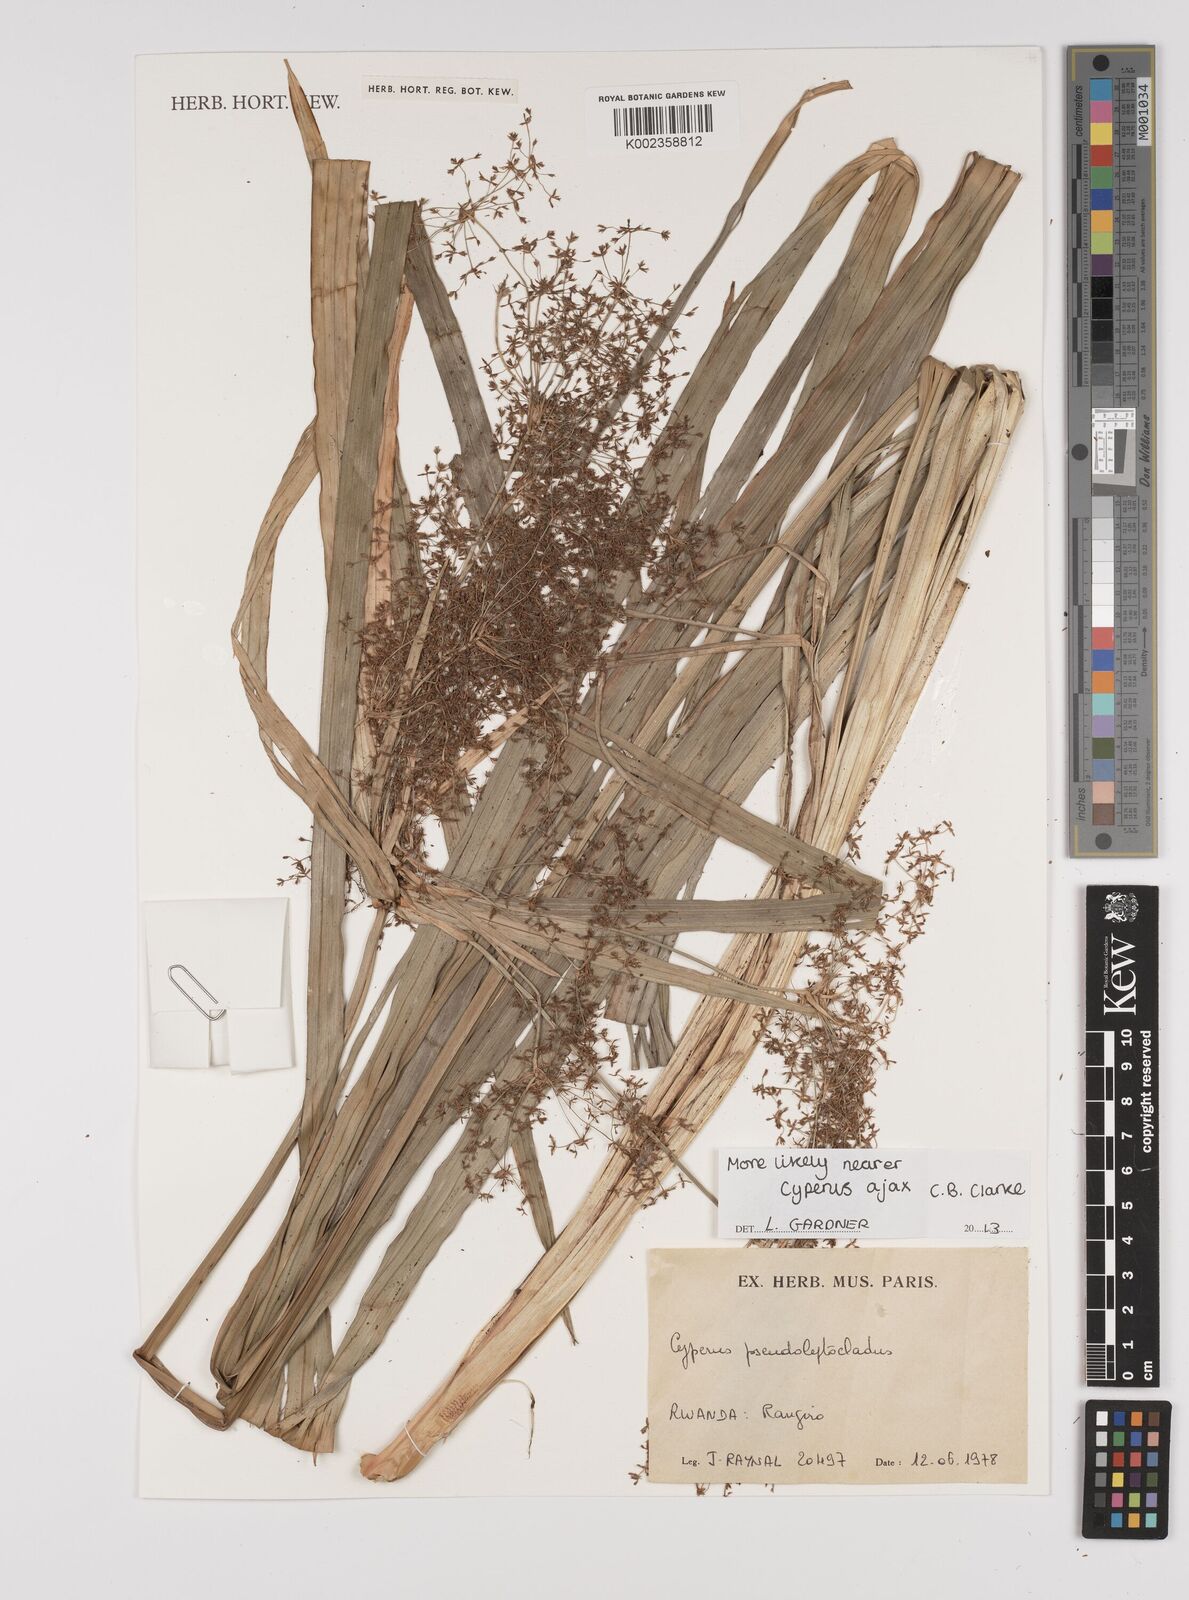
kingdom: Plantae
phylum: Tracheophyta
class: Liliopsida
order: Poales
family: Cyperaceae
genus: Cyperus
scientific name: Cyperus
